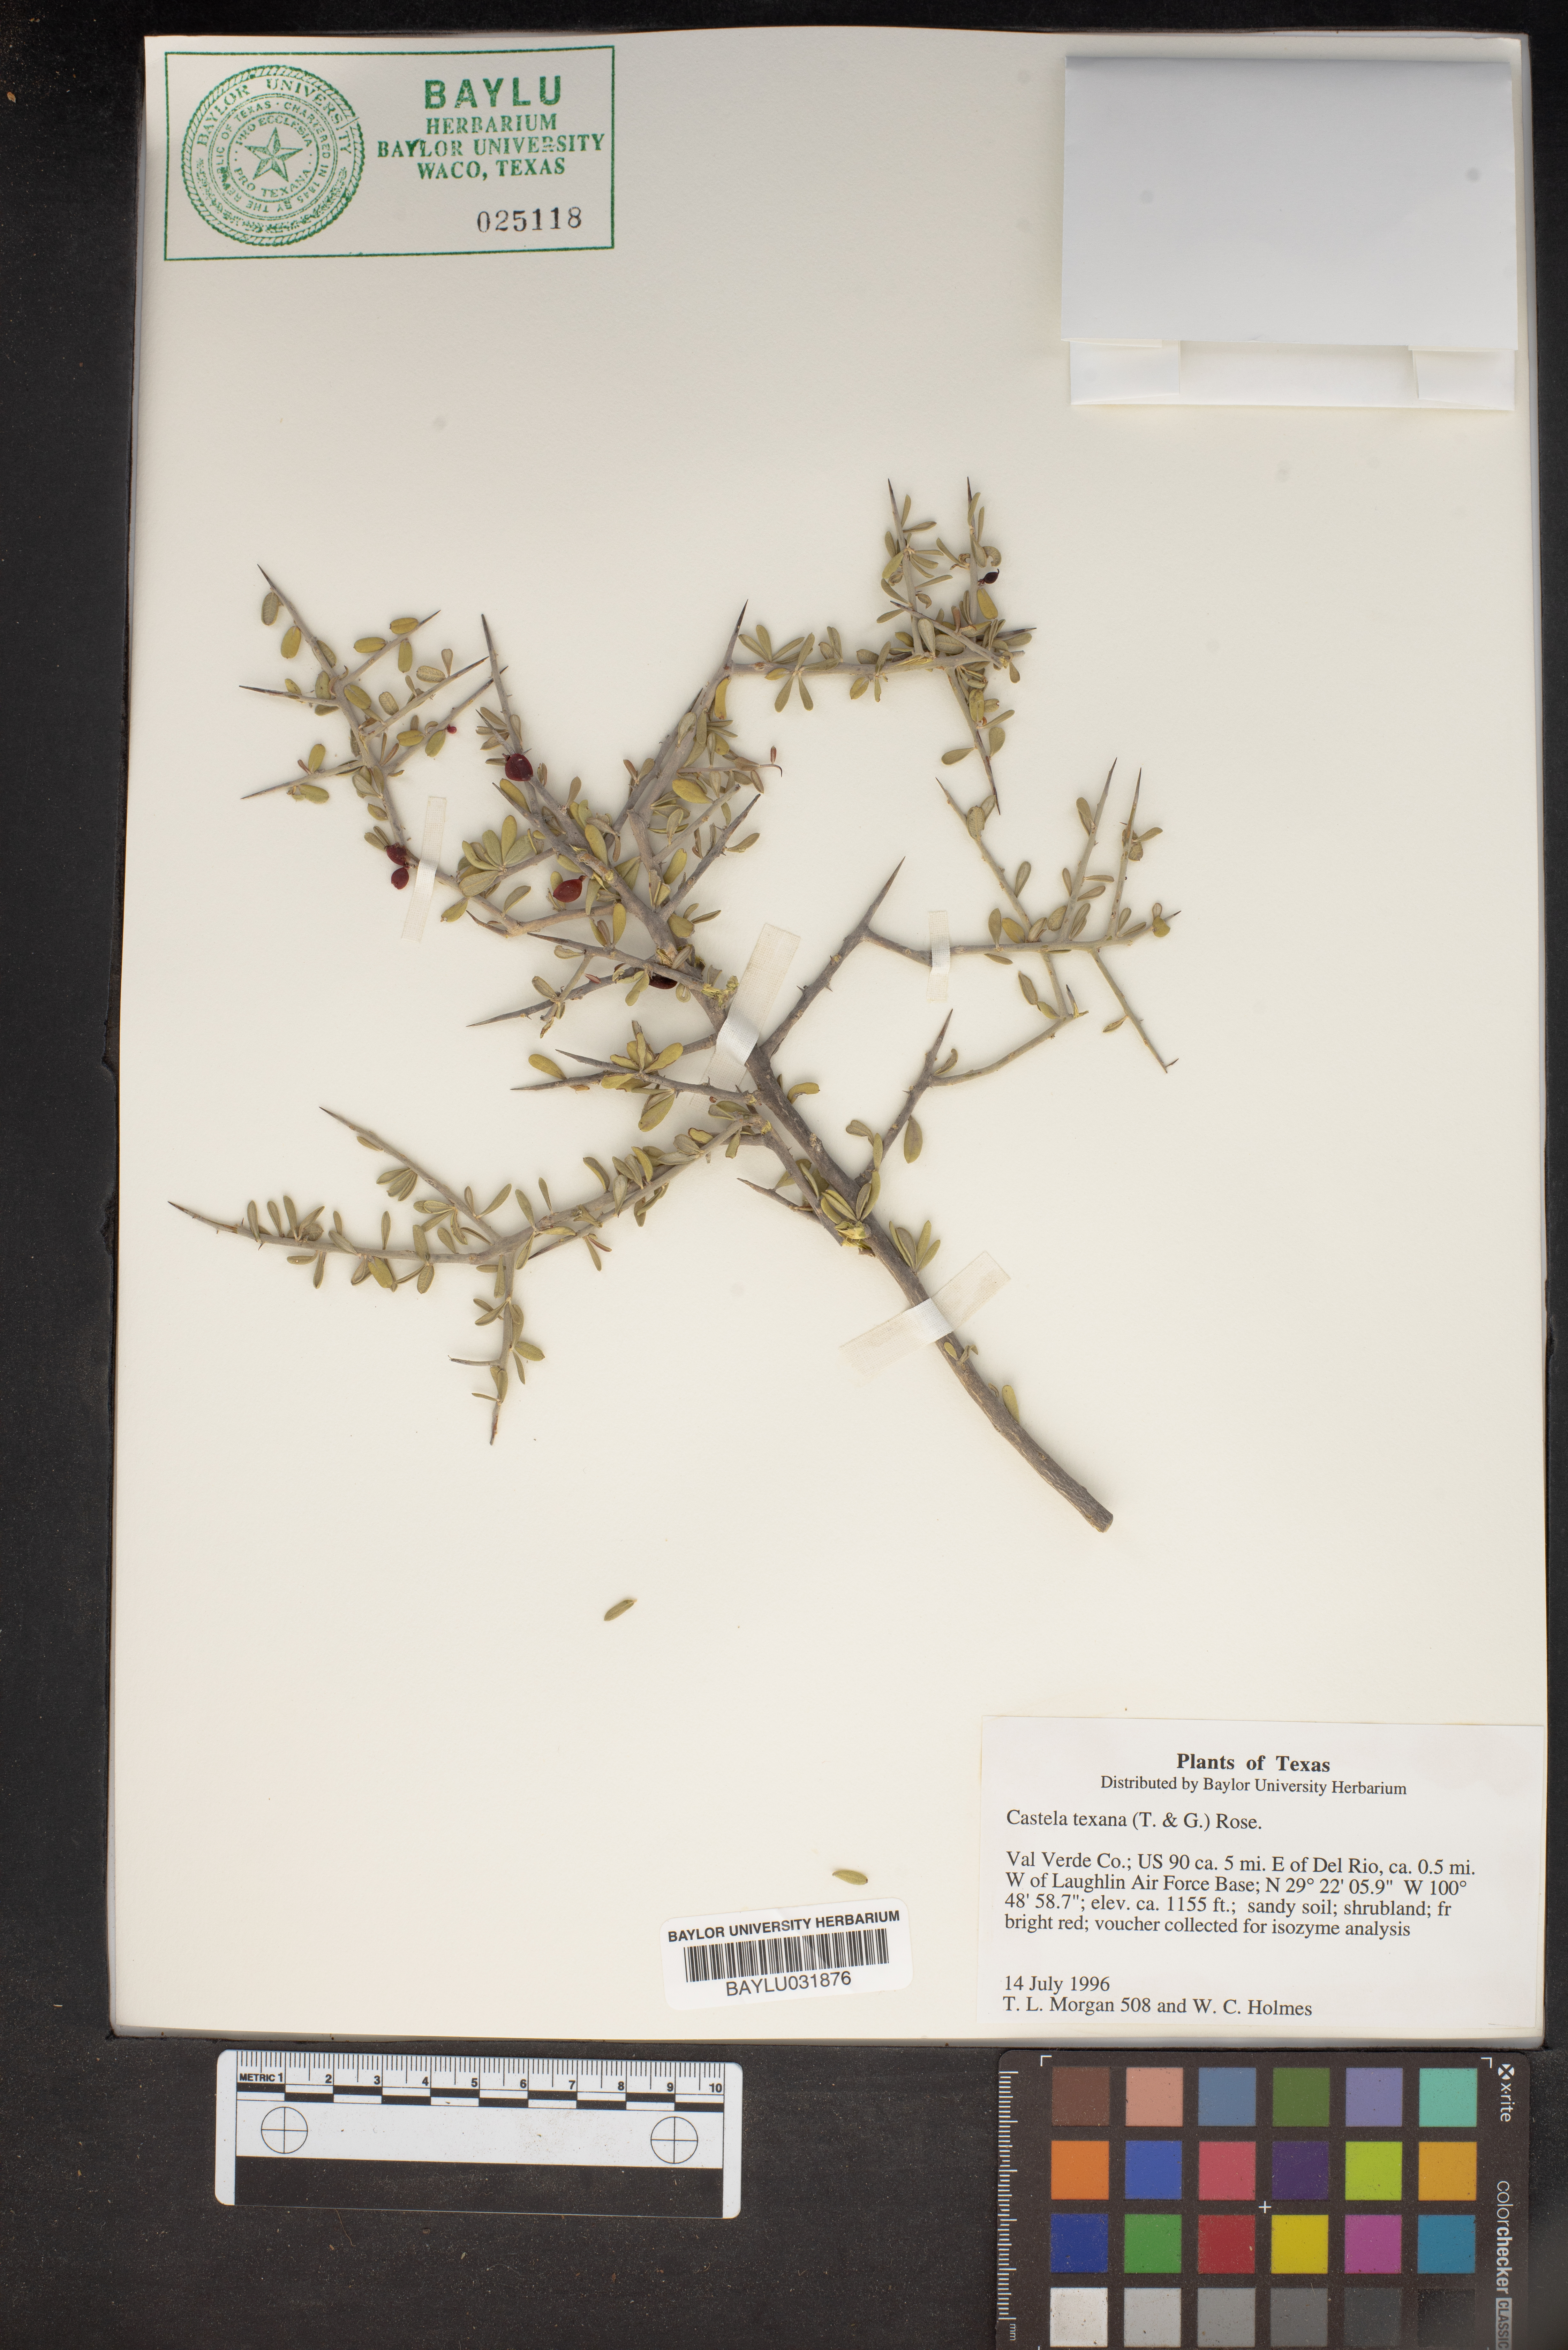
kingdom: Plantae
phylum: Tracheophyta
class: Magnoliopsida
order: Sapindales
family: Simaroubaceae
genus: Castela
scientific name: Castela tortuosa
